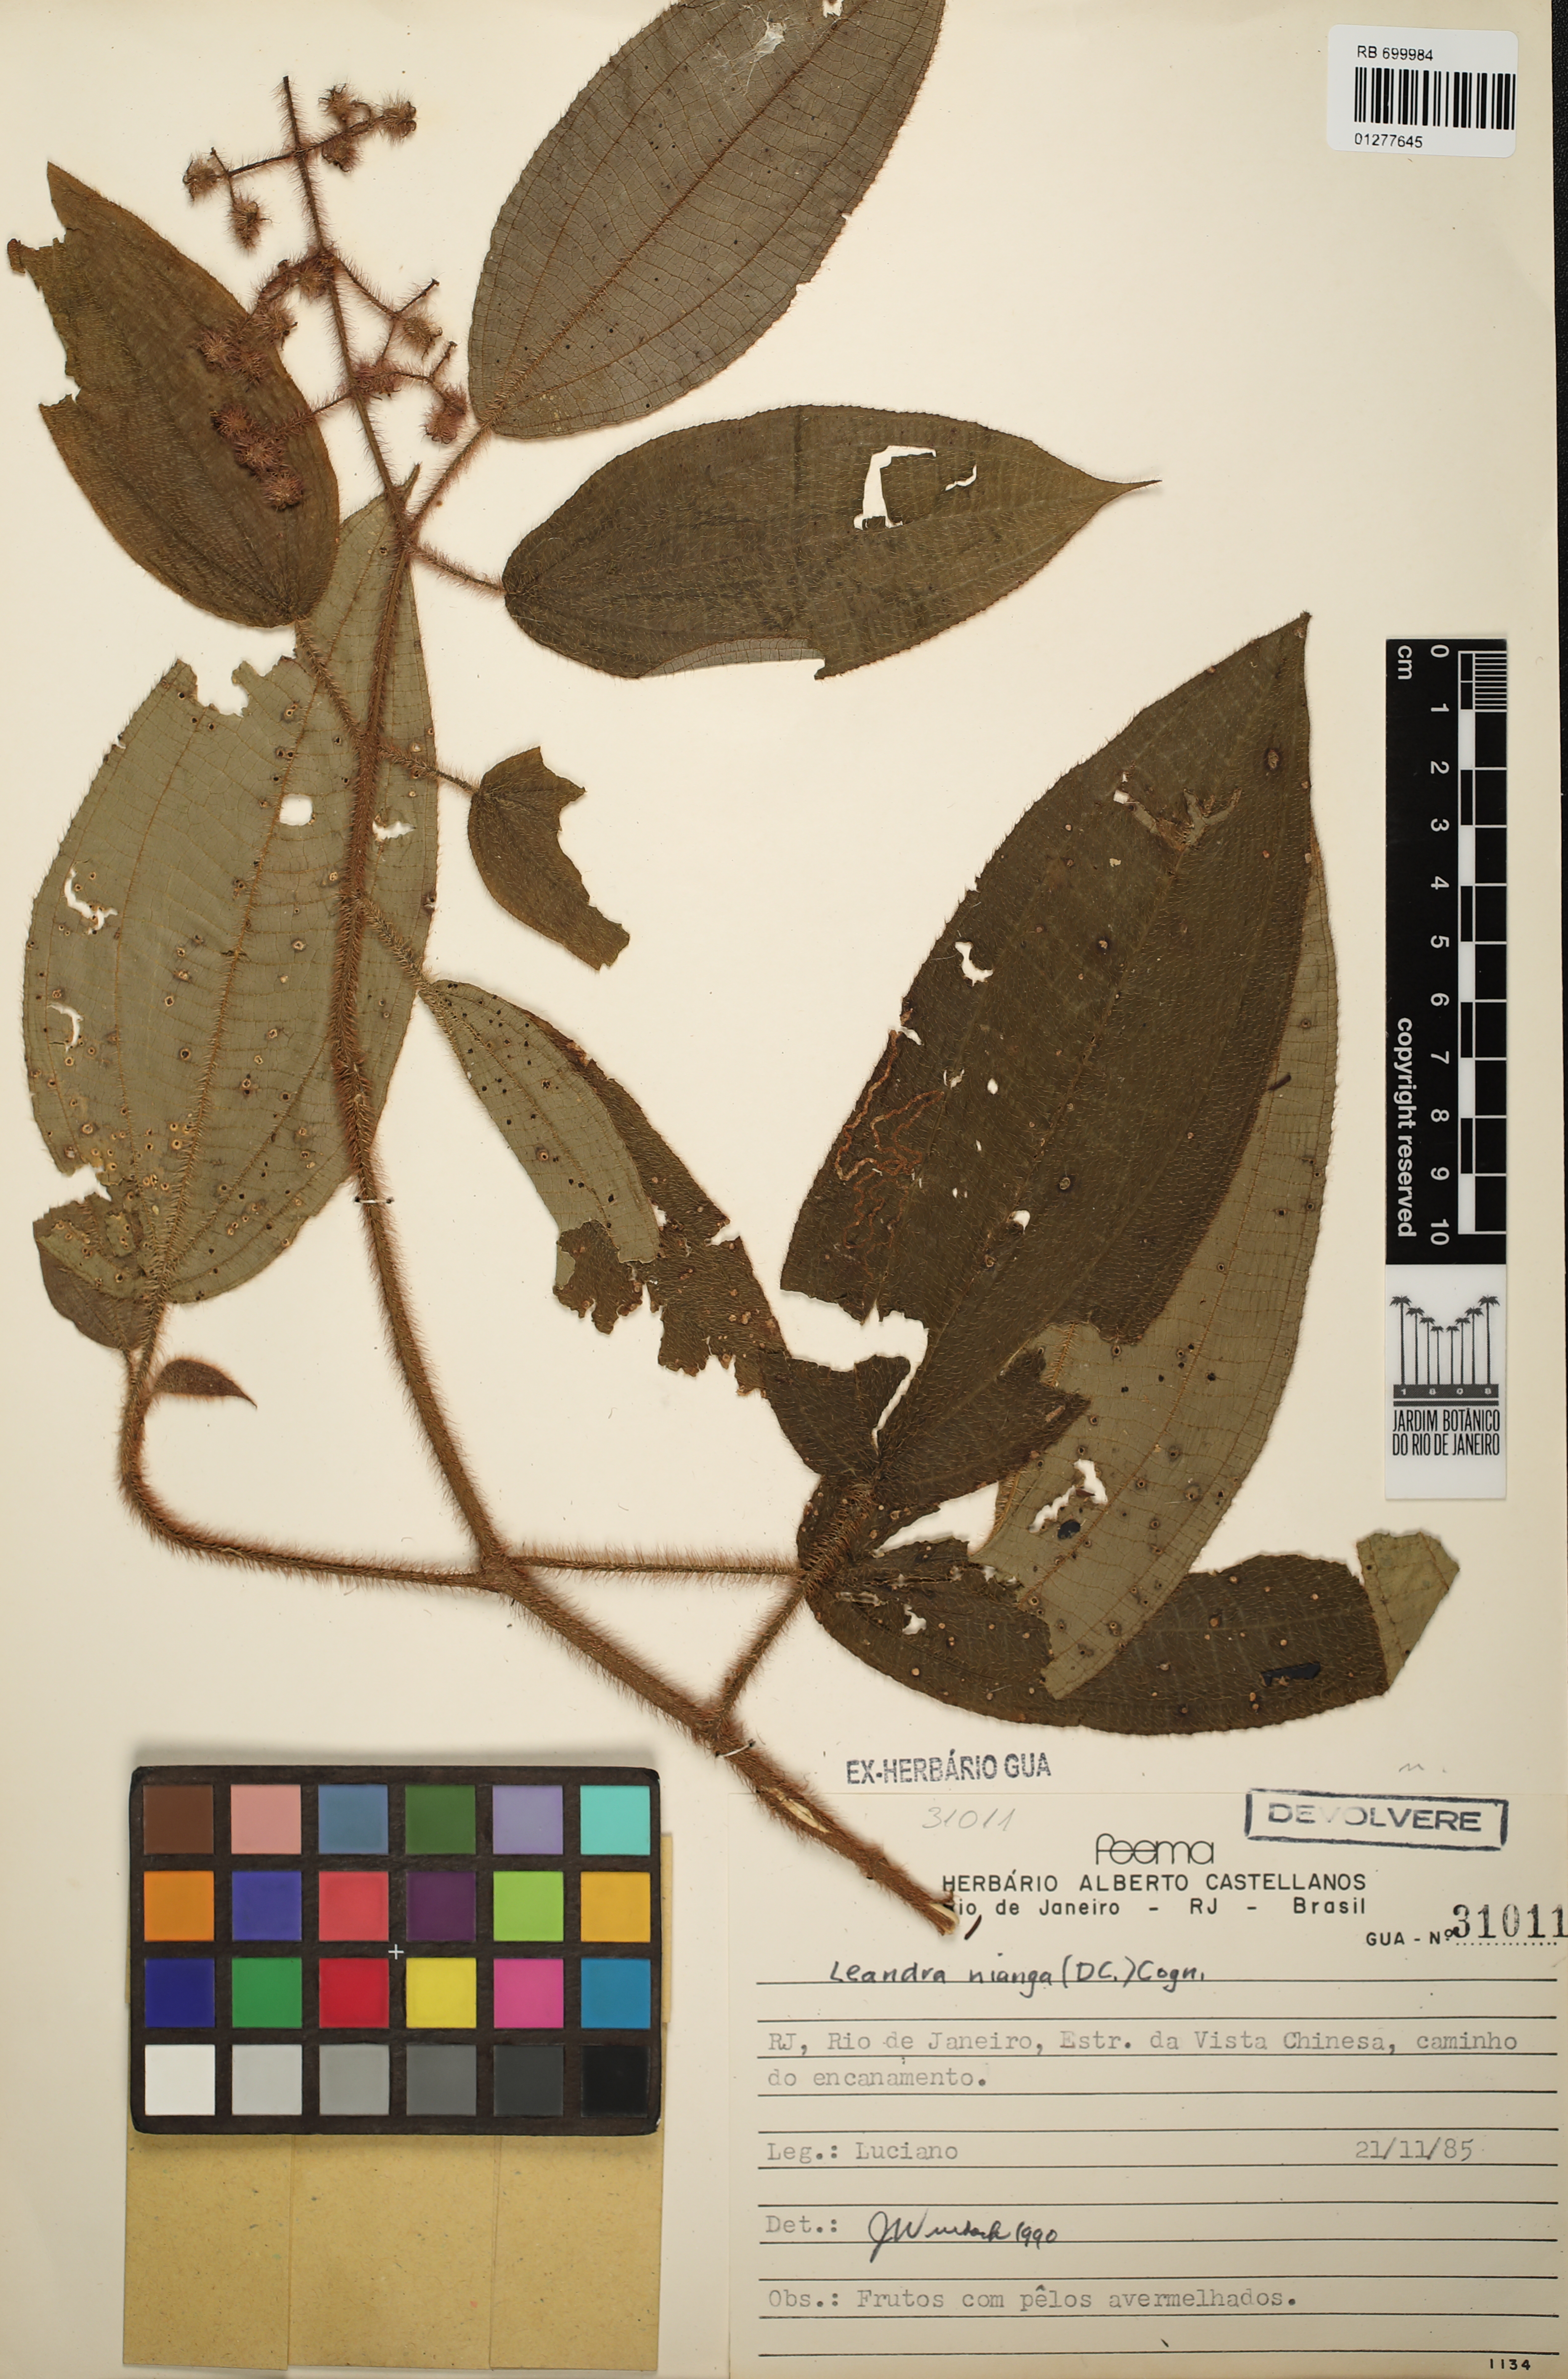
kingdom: Plantae
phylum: Tracheophyta
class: Magnoliopsida
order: Myrtales
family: Melastomataceae
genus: Miconia
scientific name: Miconia nianga
